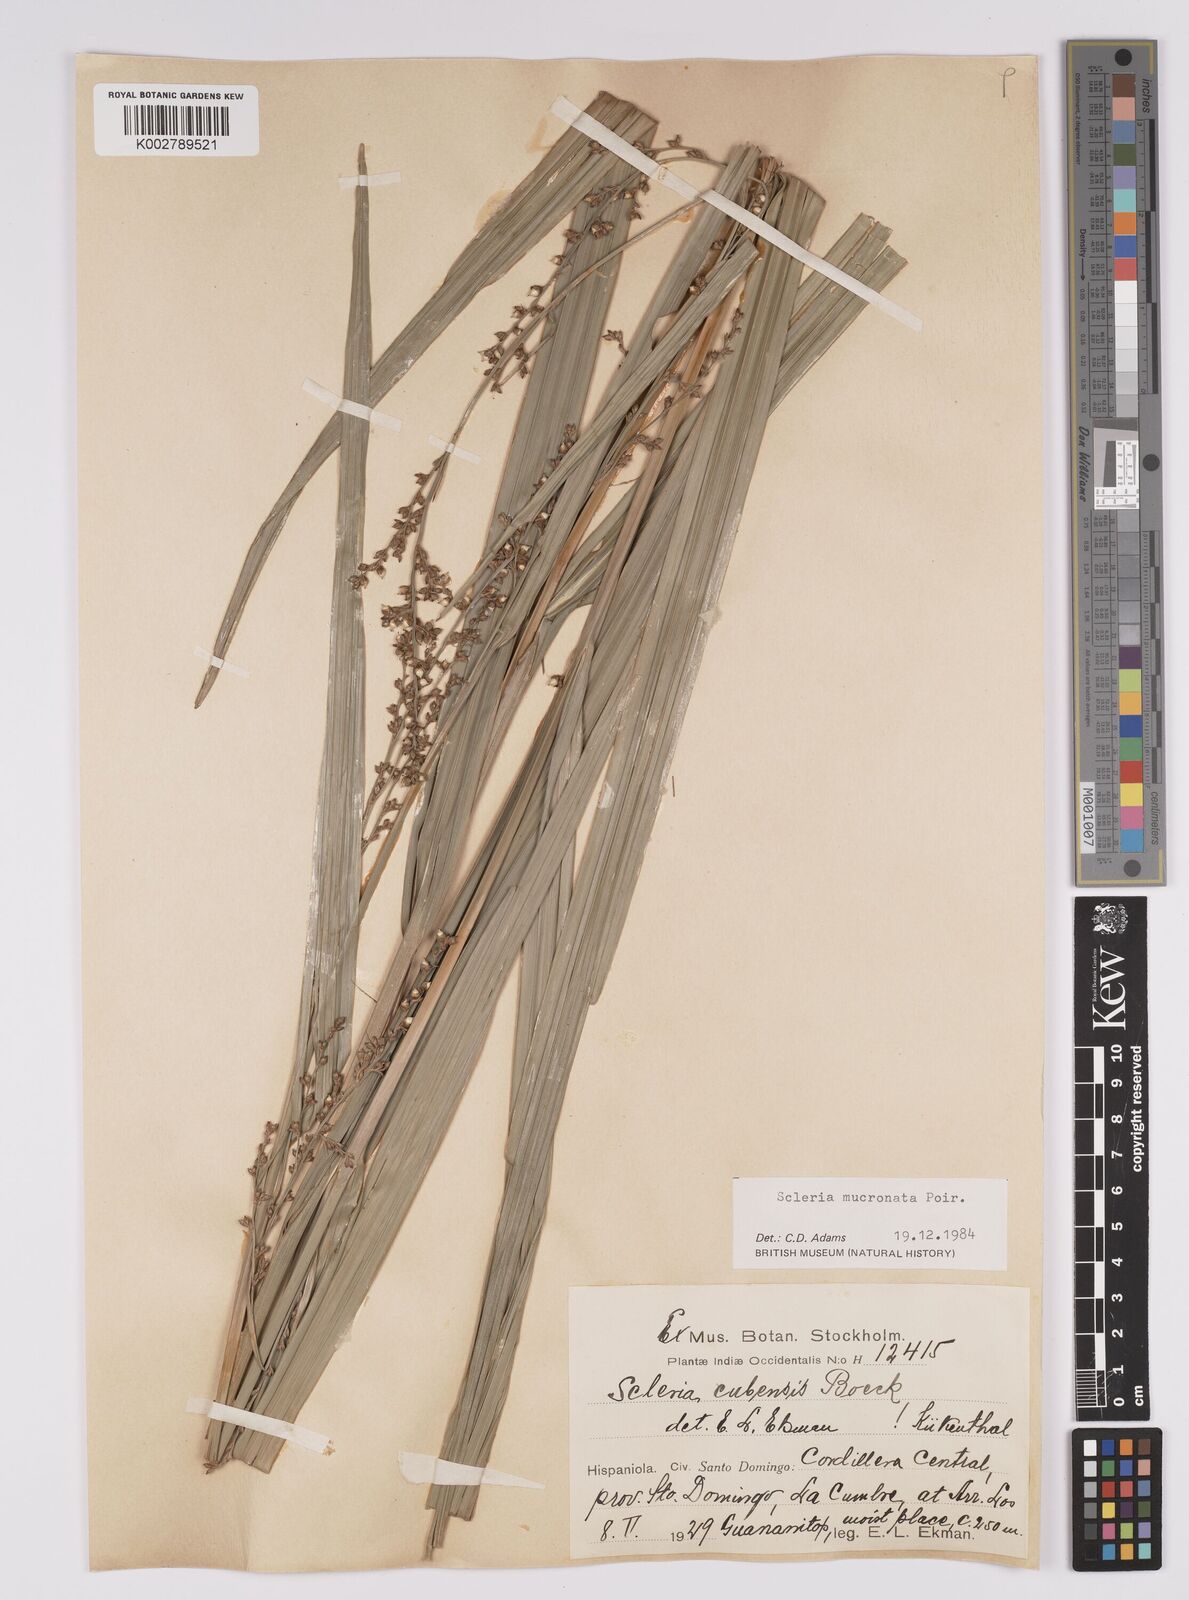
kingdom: Plantae
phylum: Tracheophyta
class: Liliopsida
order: Poales
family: Cyperaceae
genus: Scleria
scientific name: Scleria mucronata
